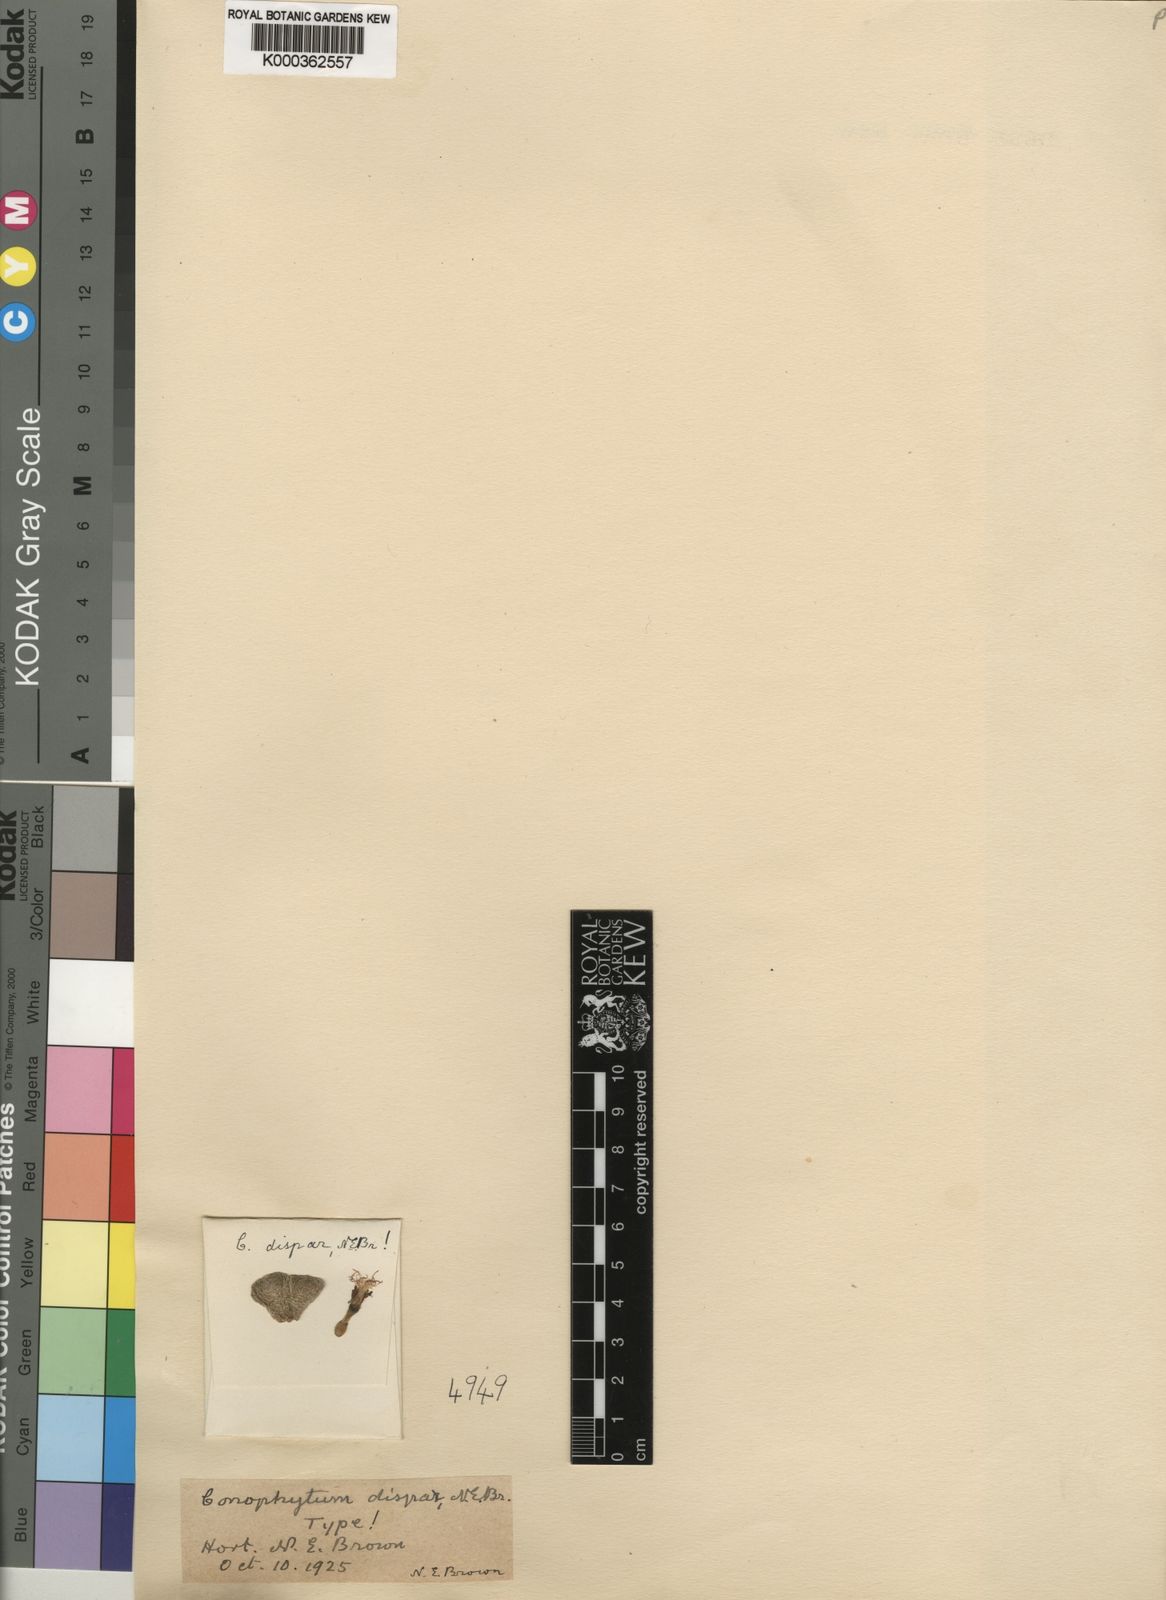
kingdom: Plantae
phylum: Tracheophyta
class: Magnoliopsida
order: Caryophyllales
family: Aizoaceae
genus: Conophytum
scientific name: Conophytum truncatum
